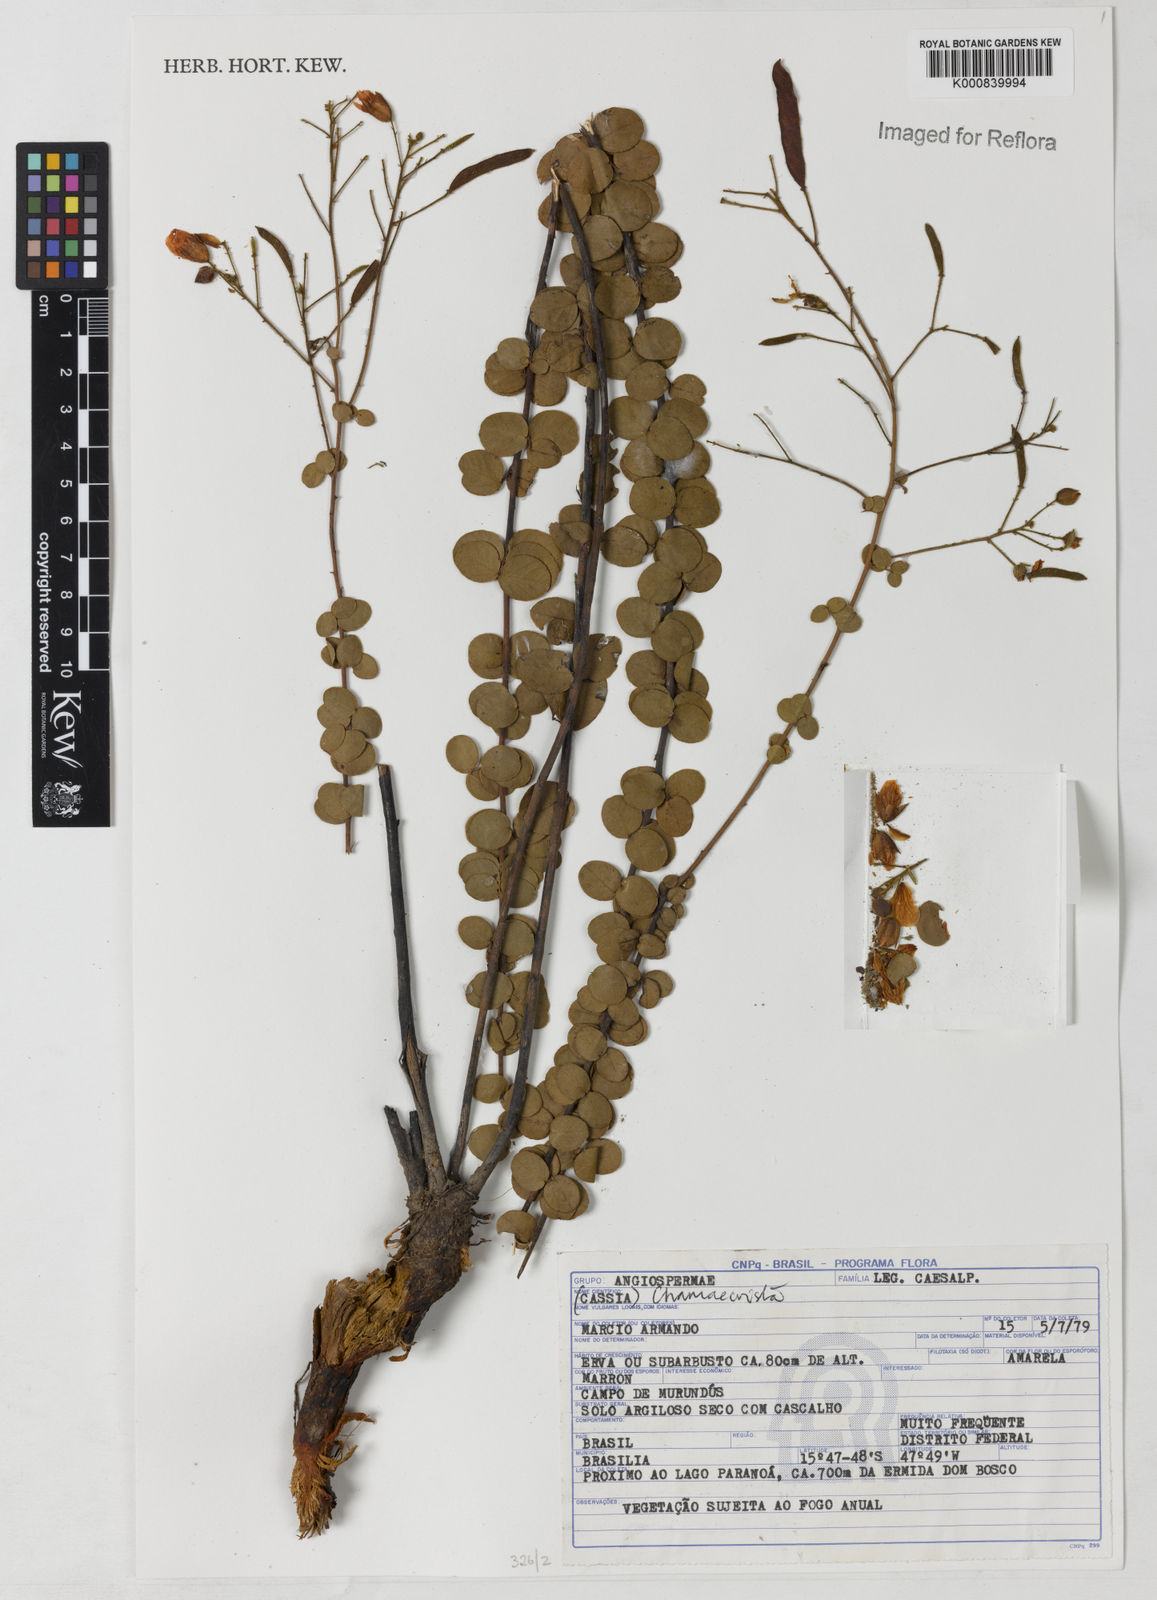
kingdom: Plantae
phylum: Tracheophyta
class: Magnoliopsida
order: Fabales
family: Fabaceae
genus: Chamaecrista
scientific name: Chamaecrista
